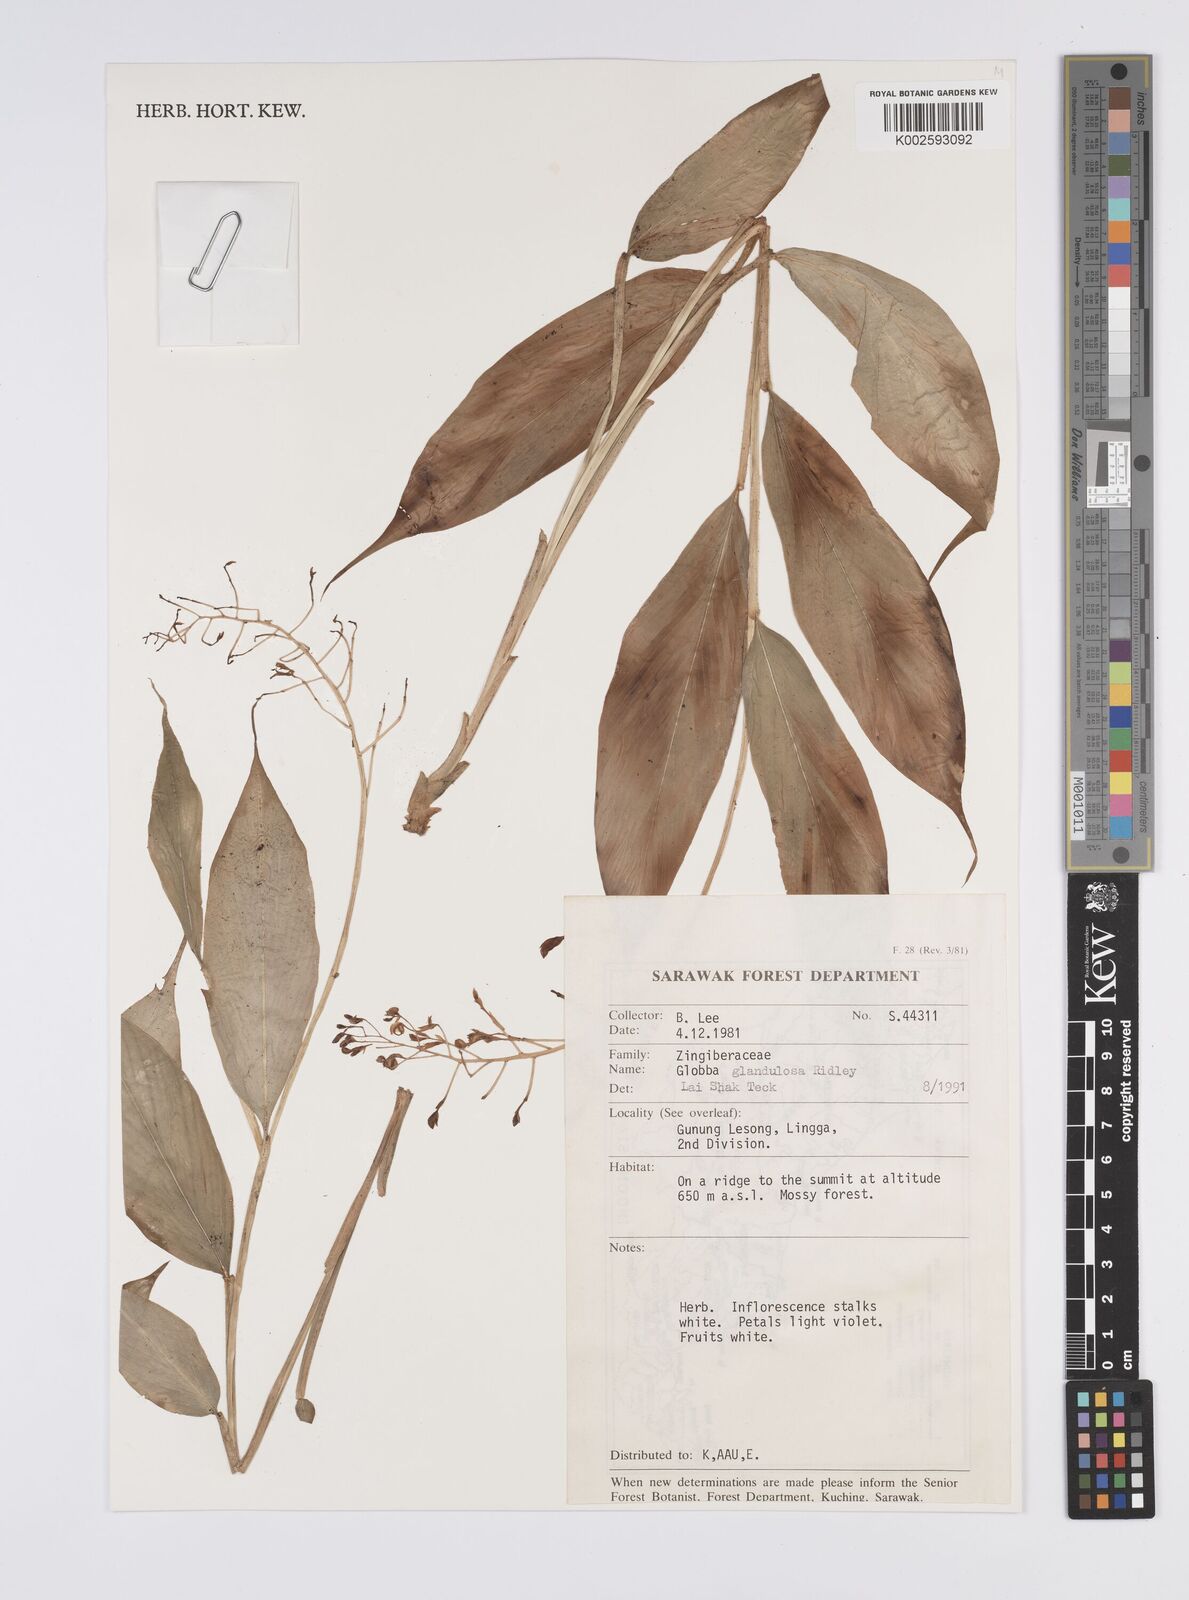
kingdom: Plantae
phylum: Tracheophyta
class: Liliopsida
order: Zingiberales
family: Zingiberaceae
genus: Globba
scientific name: Globba glandulosa
